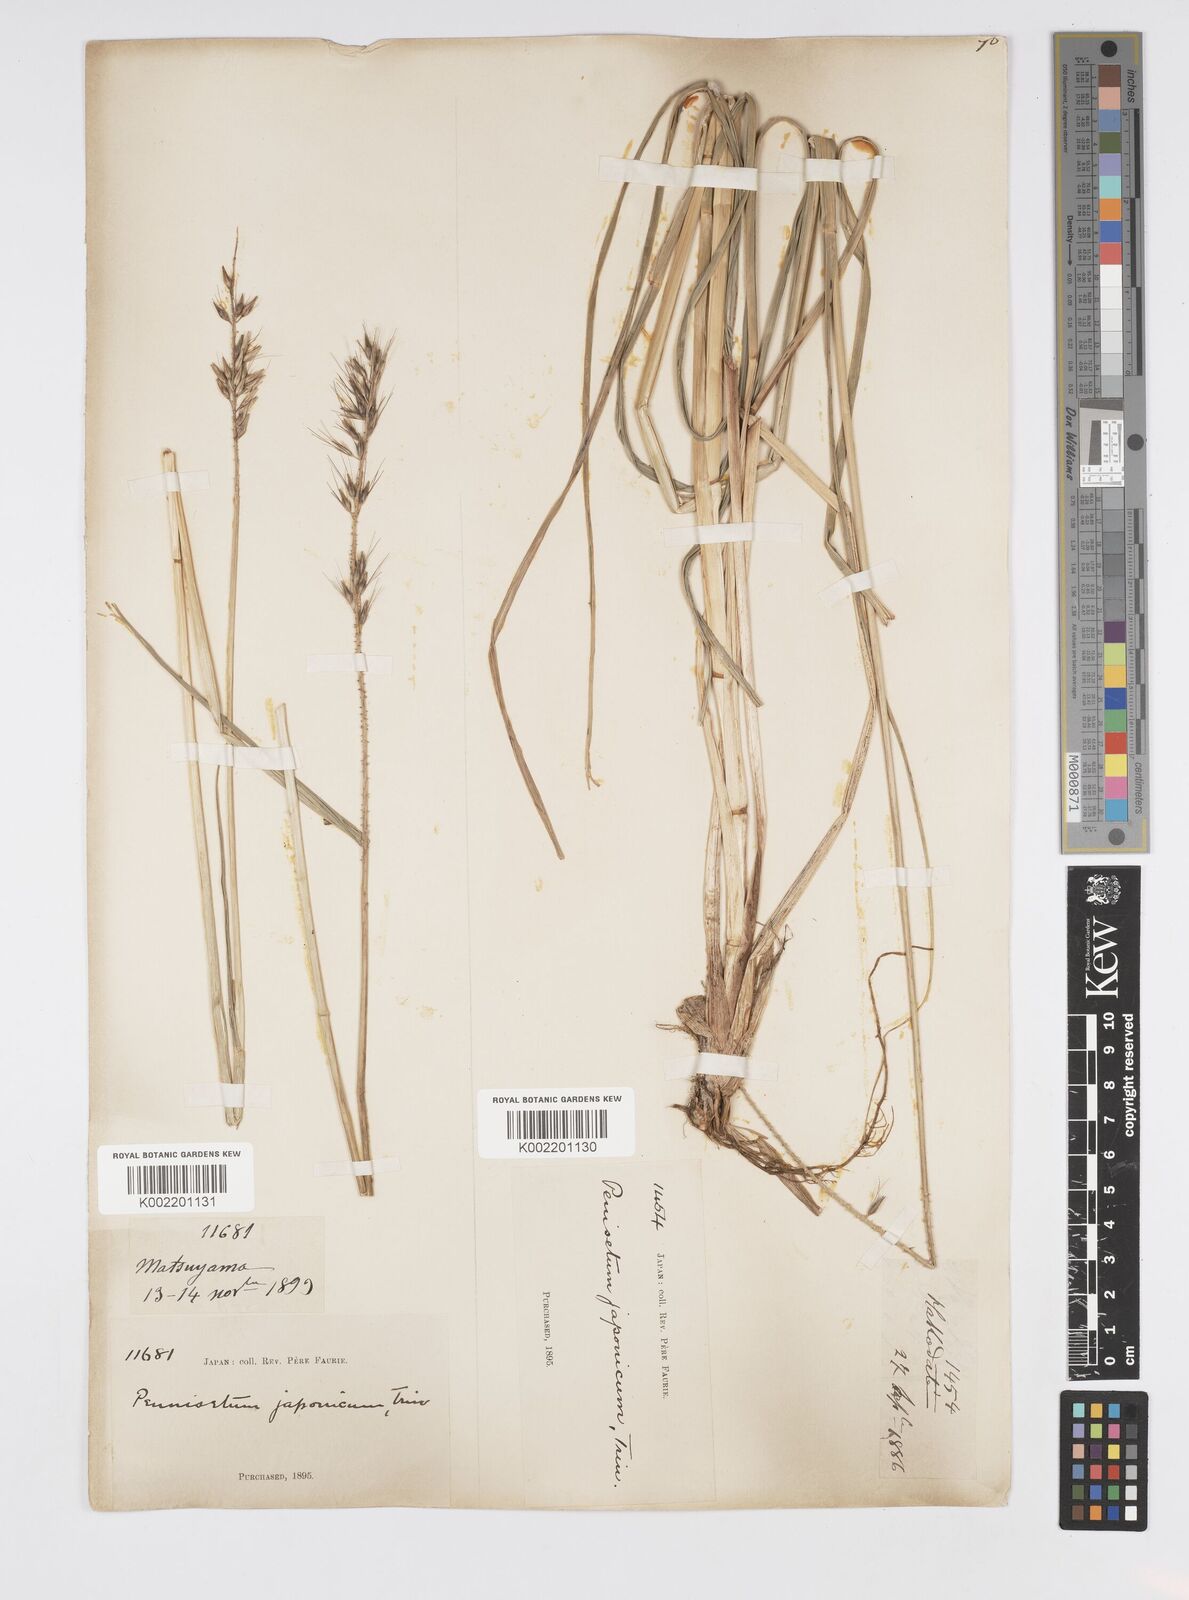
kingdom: Plantae
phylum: Tracheophyta
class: Liliopsida
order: Poales
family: Poaceae
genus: Cenchrus
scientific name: Cenchrus alopecuroides
